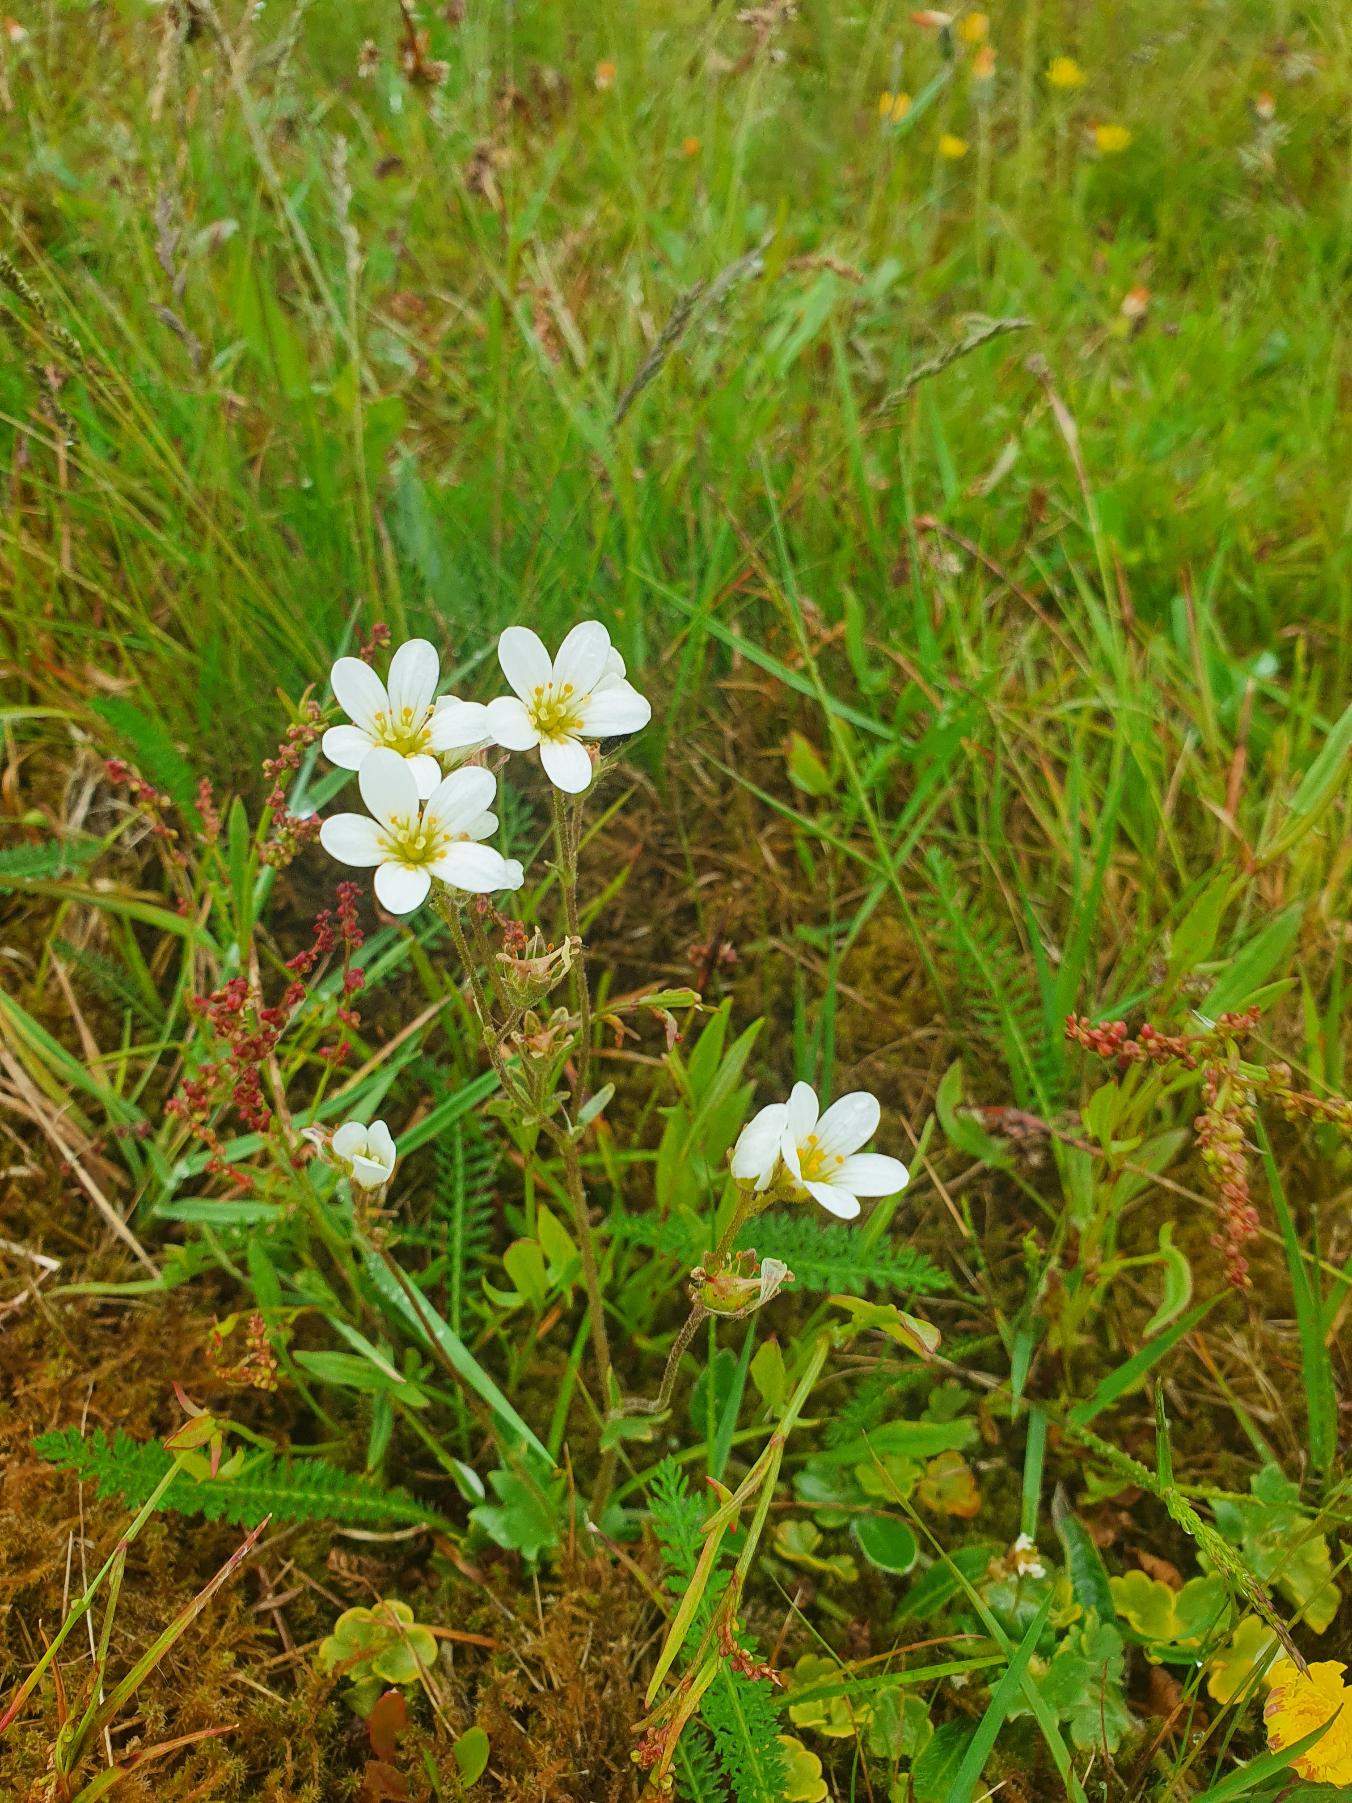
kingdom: Plantae
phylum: Tracheophyta
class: Magnoliopsida
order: Saxifragales
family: Saxifragaceae
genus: Saxifraga
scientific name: Saxifraga granulata
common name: Kornet stenbræk
